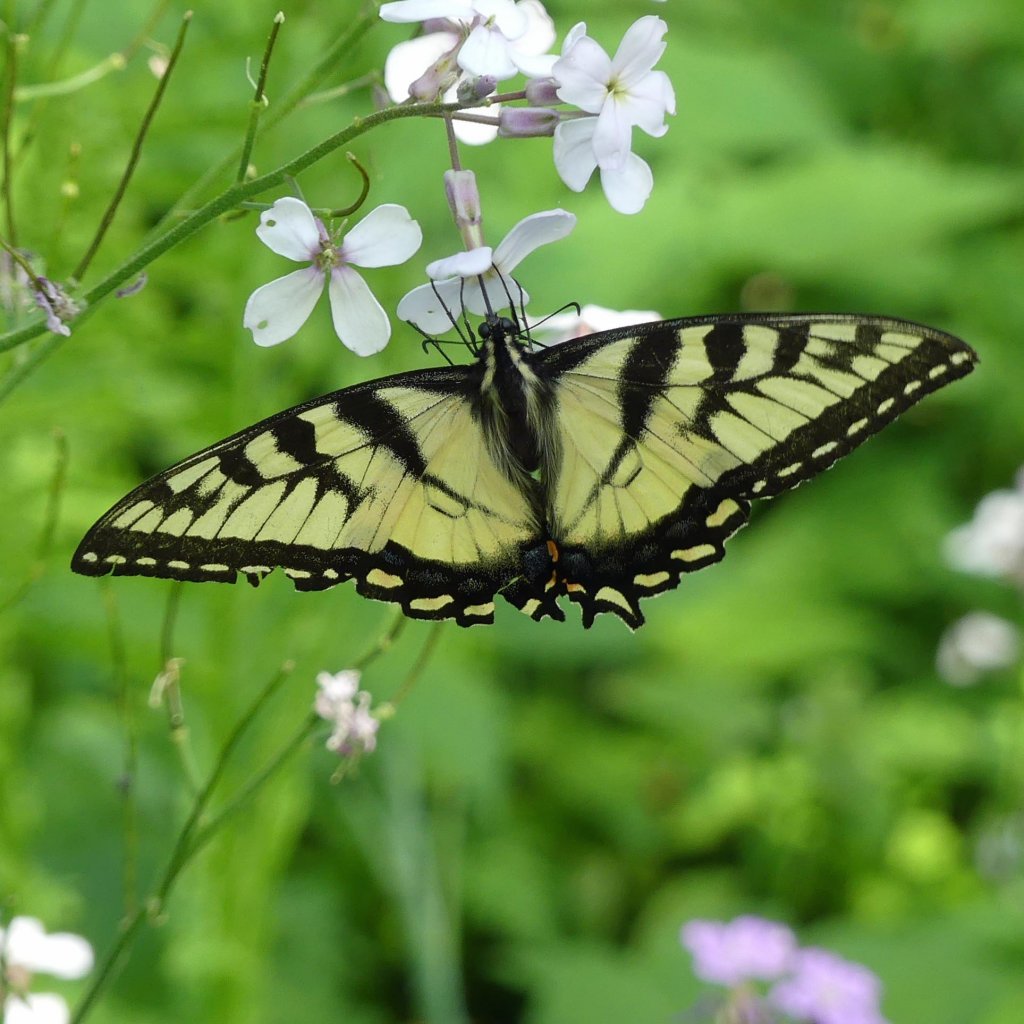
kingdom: Animalia
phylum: Arthropoda
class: Insecta
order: Lepidoptera
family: Papilionidae
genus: Pterourus
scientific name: Pterourus glaucus
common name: Eastern Tiger Swallowtail
